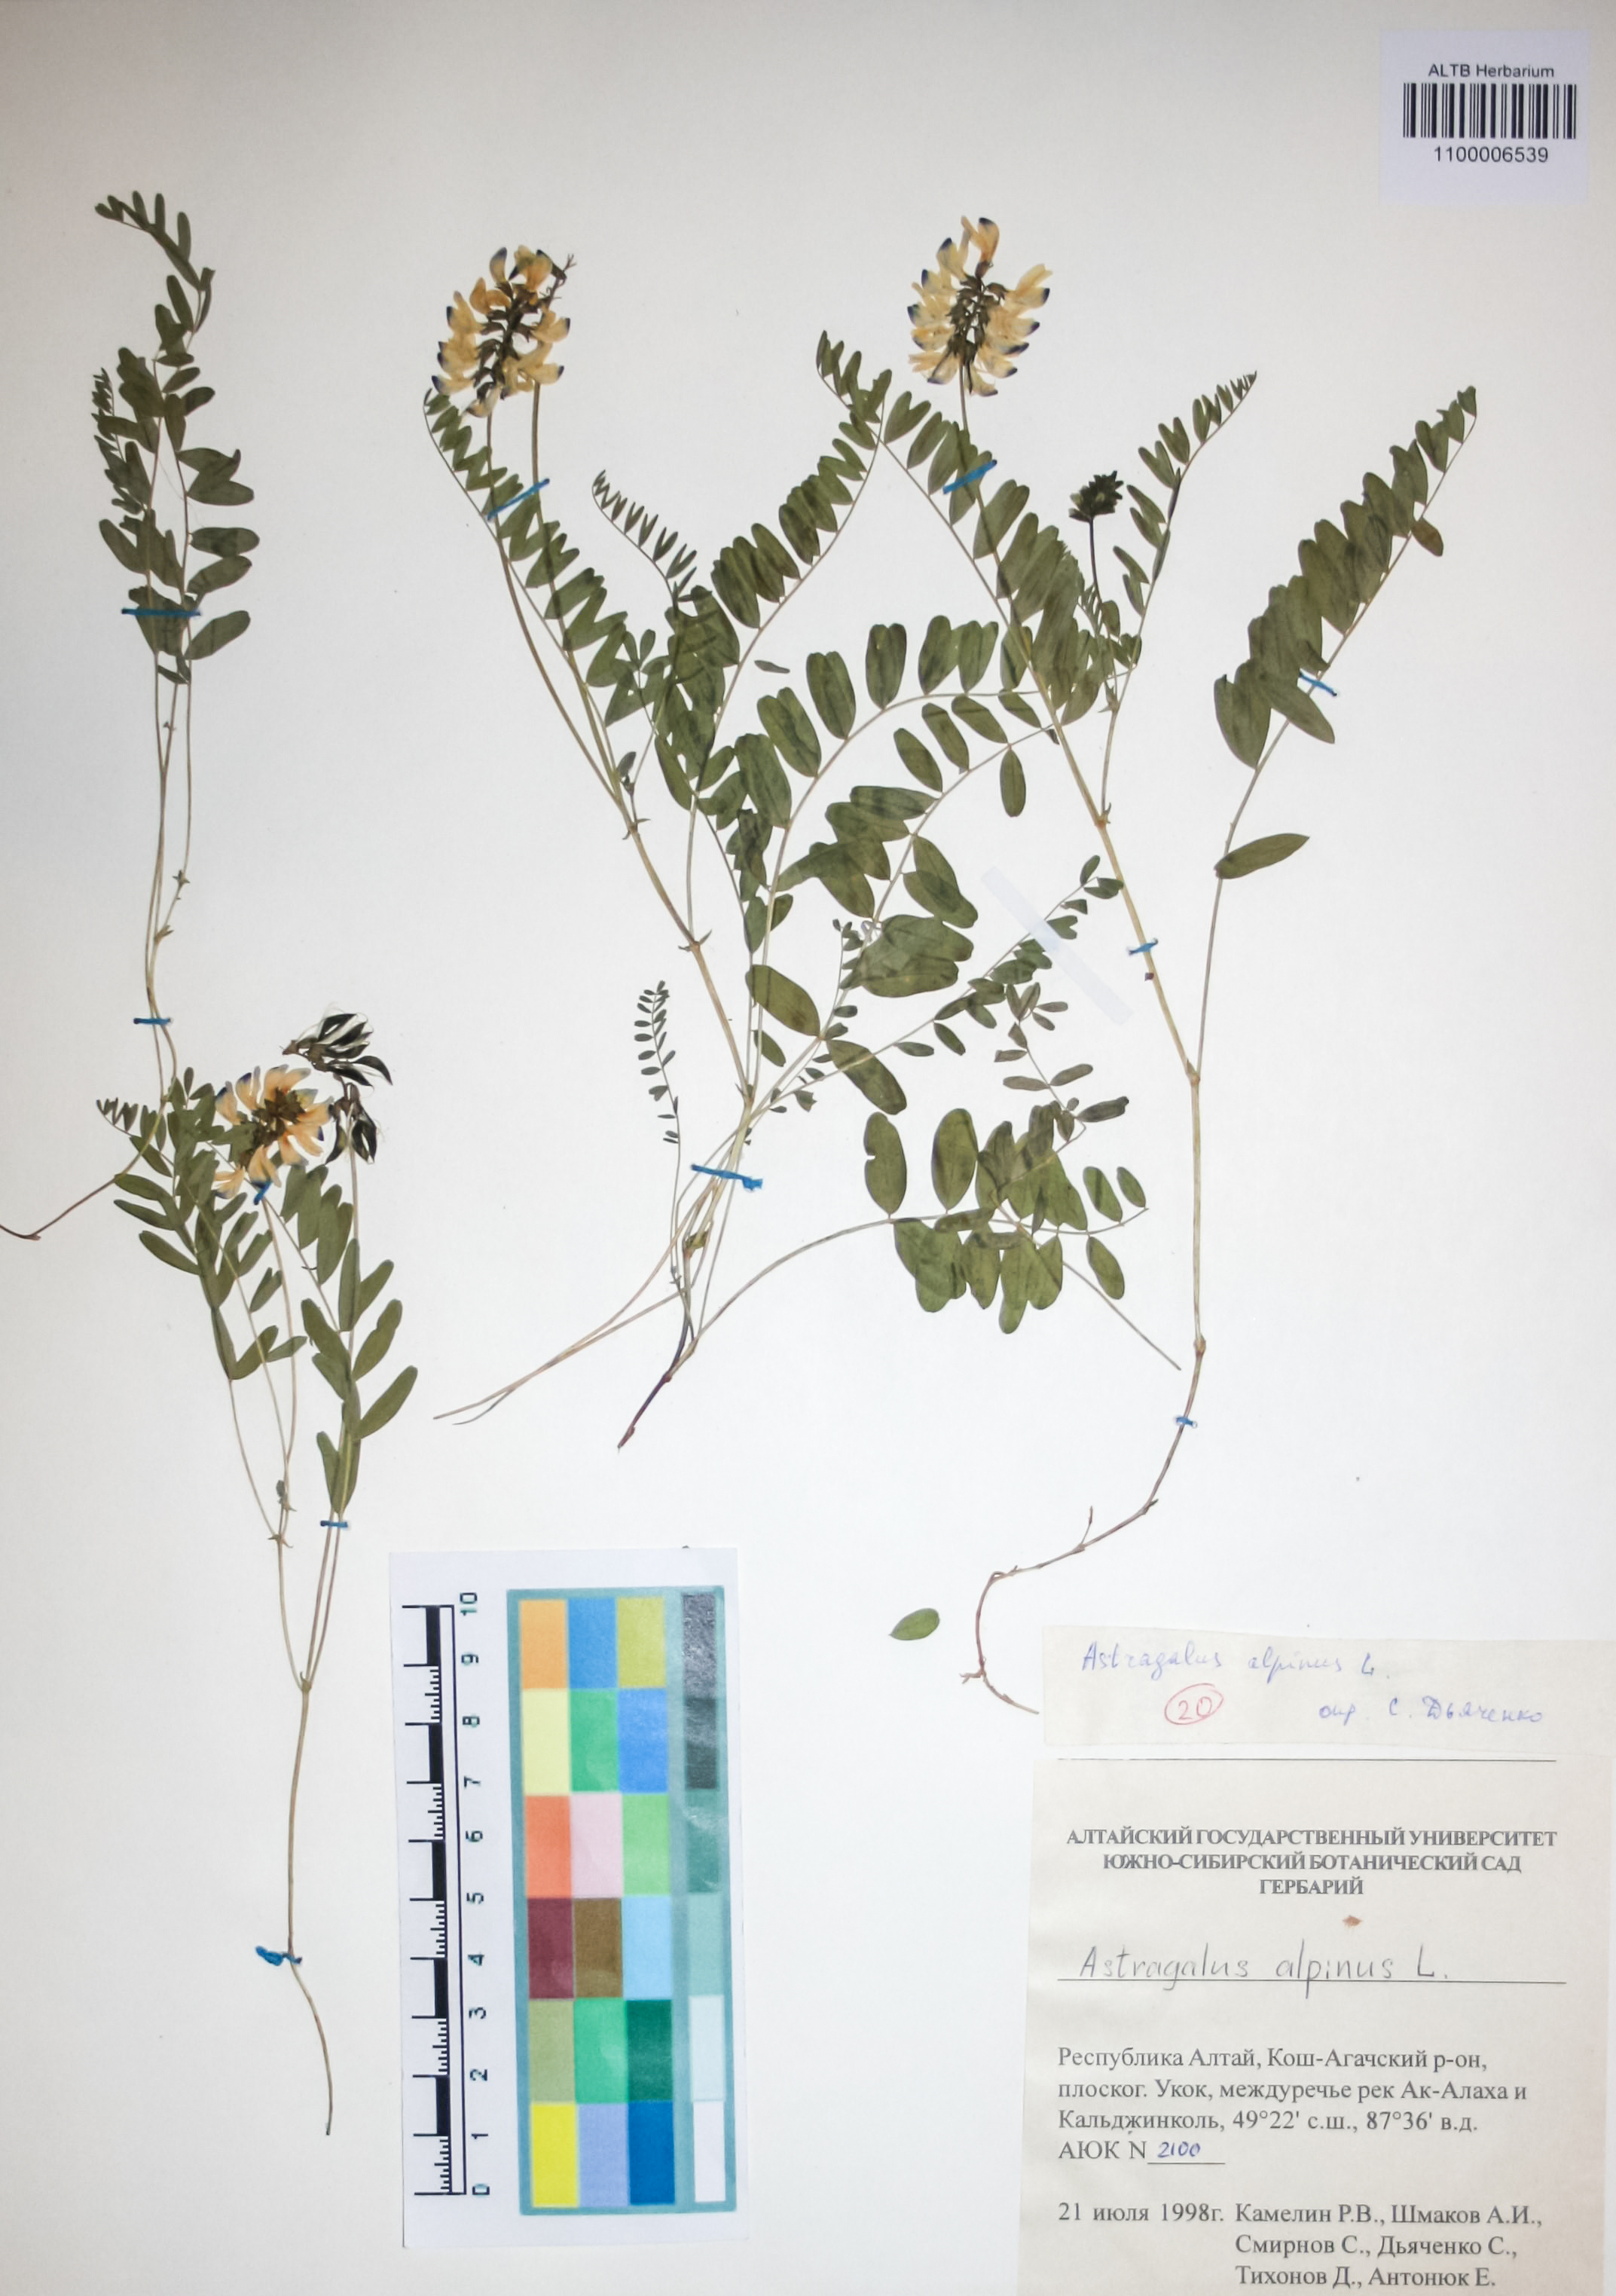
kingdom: Plantae
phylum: Tracheophyta
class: Magnoliopsida
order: Fabales
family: Fabaceae
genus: Astragalus
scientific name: Astragalus alpinus
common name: Alpine milk-vetch
